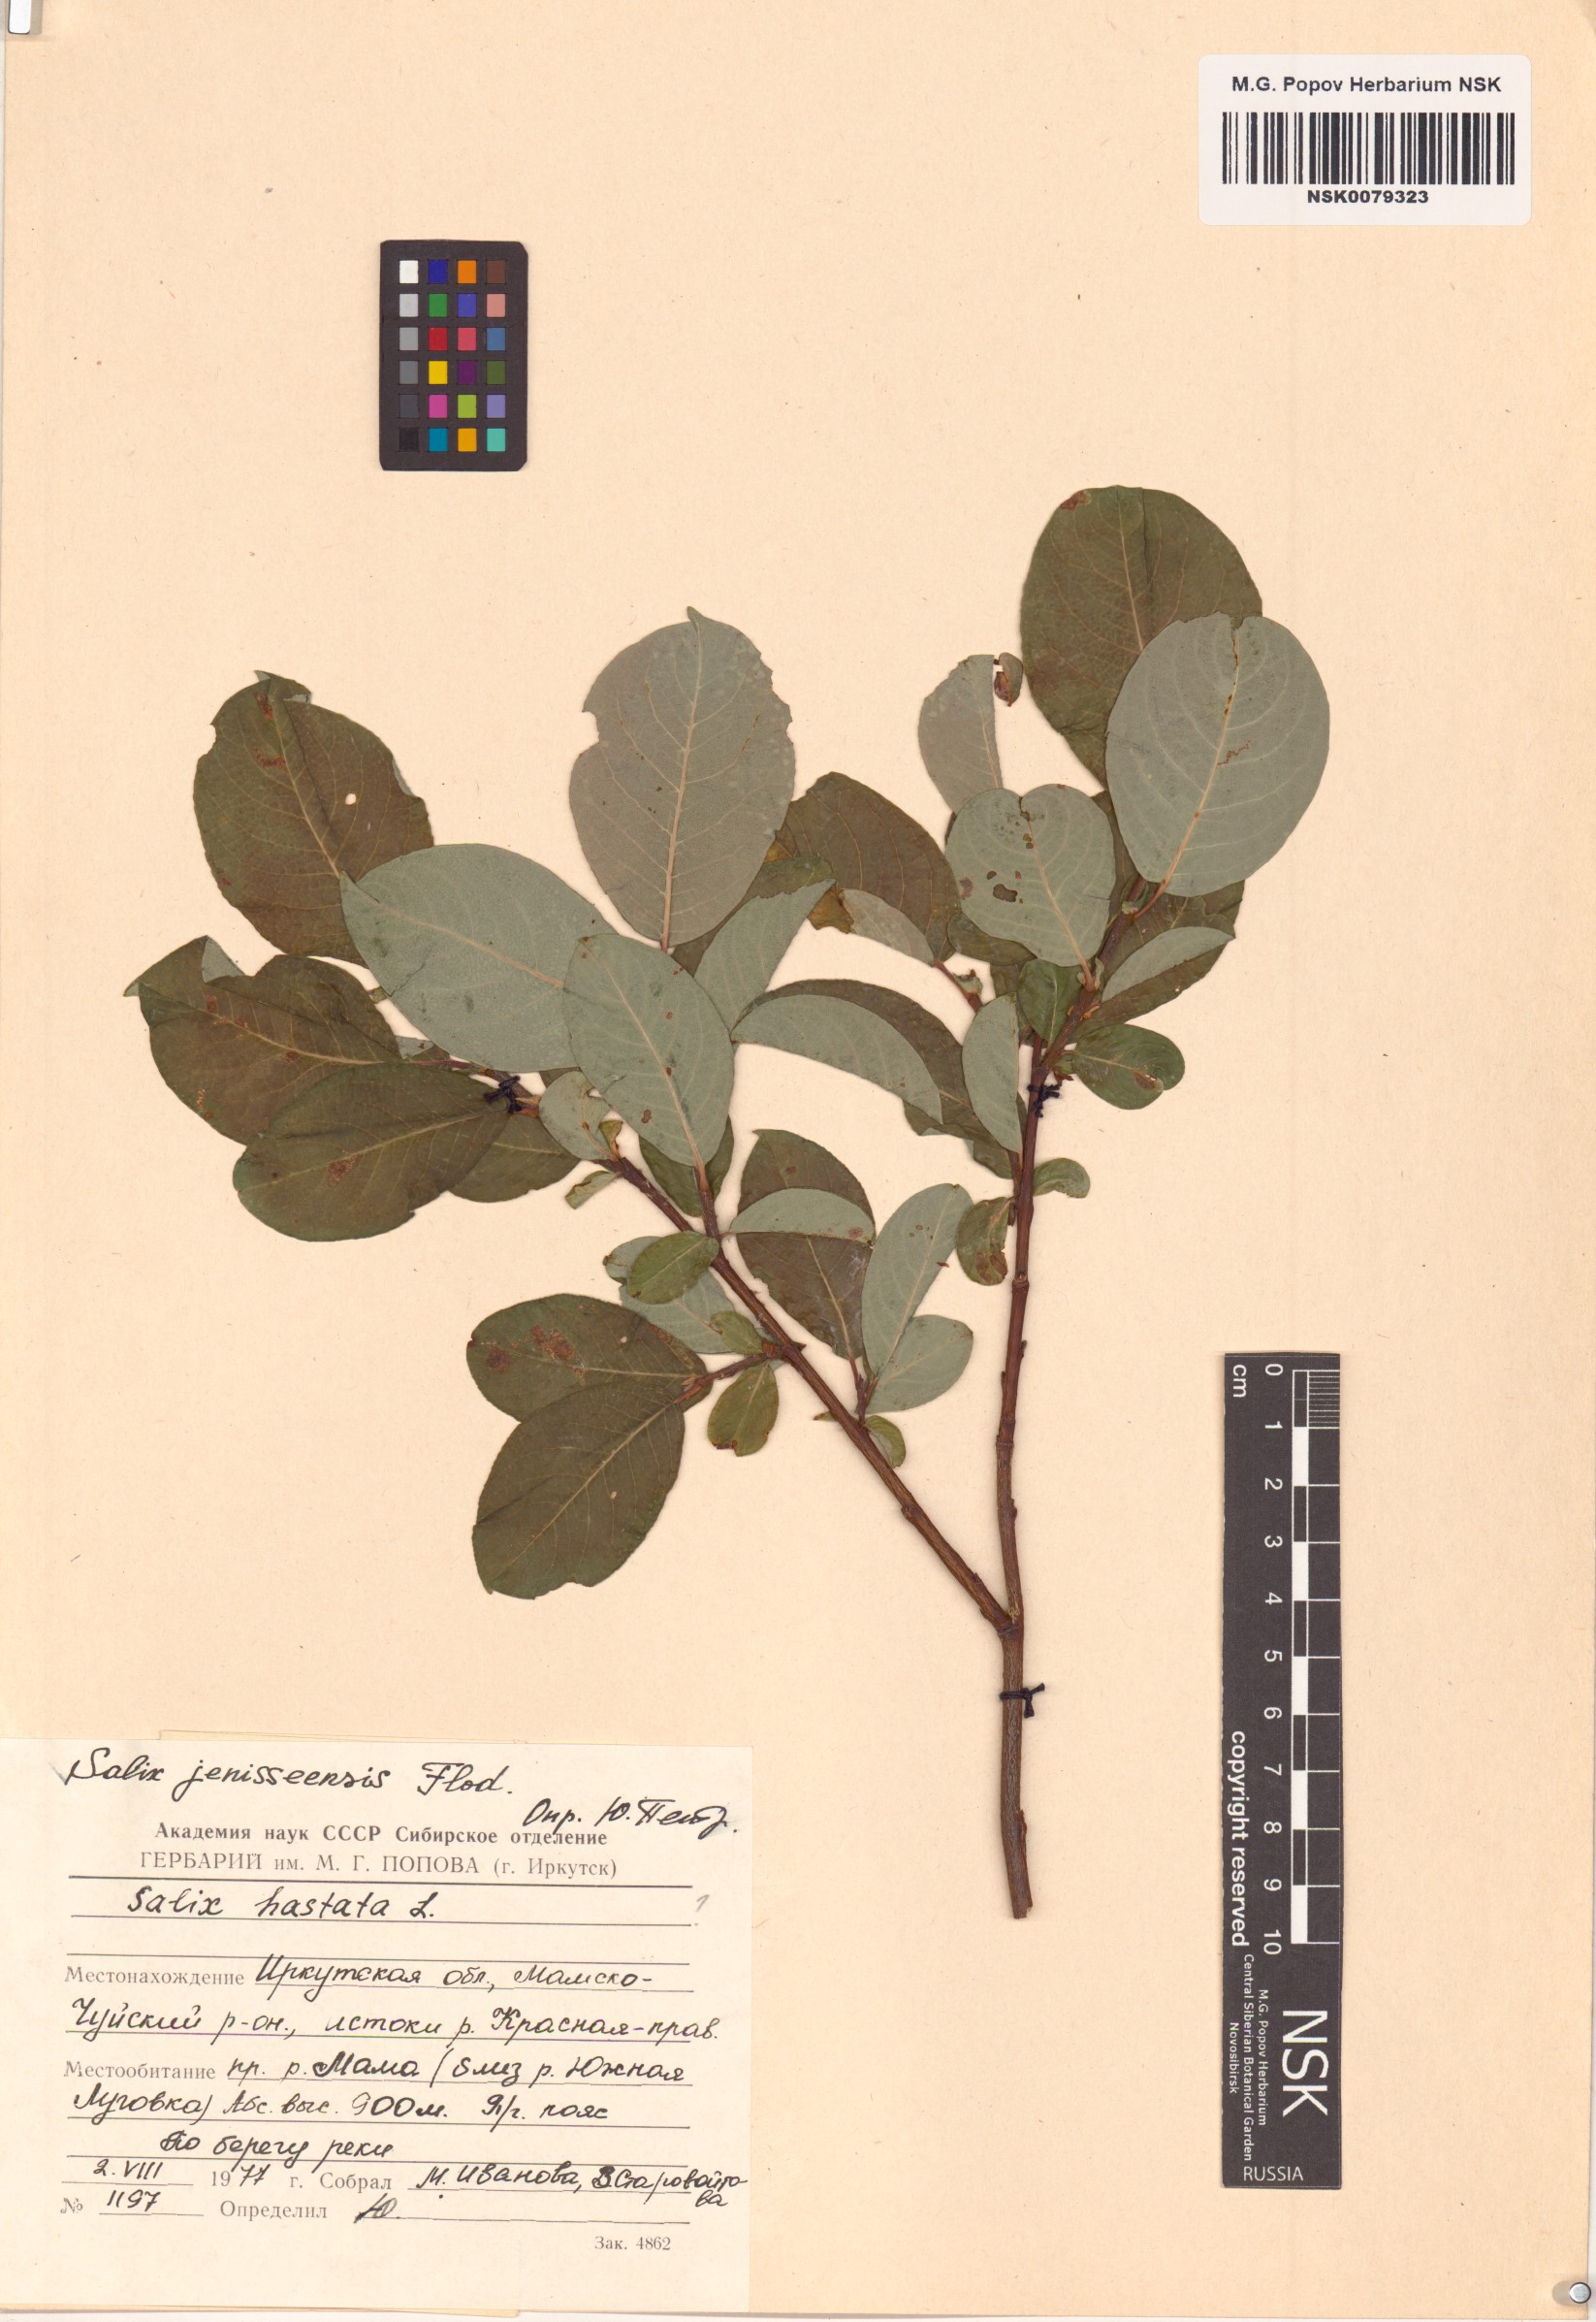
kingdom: Plantae
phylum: Tracheophyta
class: Magnoliopsida
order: Malpighiales
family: Salicaceae
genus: Salix
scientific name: Salix jenisseensis
